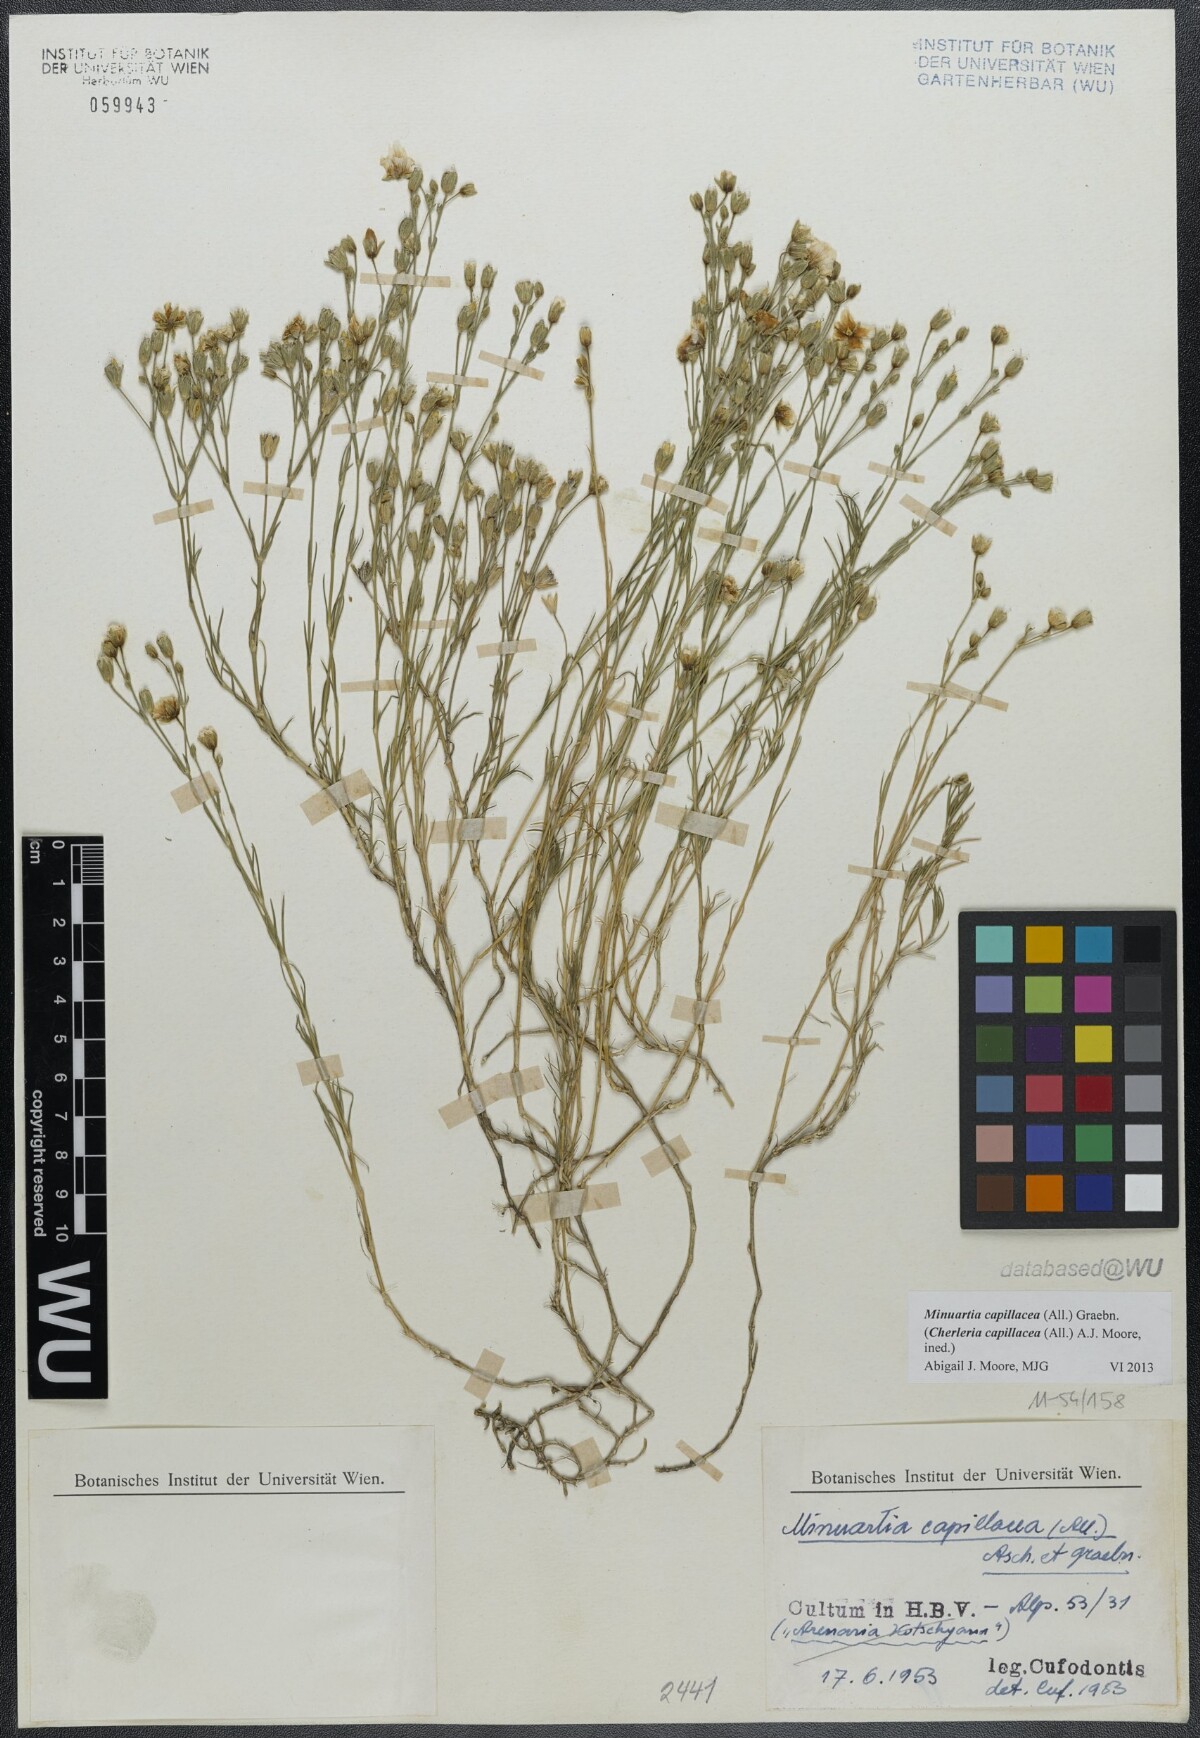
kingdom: Plantae
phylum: Tracheophyta
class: Magnoliopsida
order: Caryophyllales
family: Caryophyllaceae
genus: Cherleria
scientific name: Cherleria capillacea
